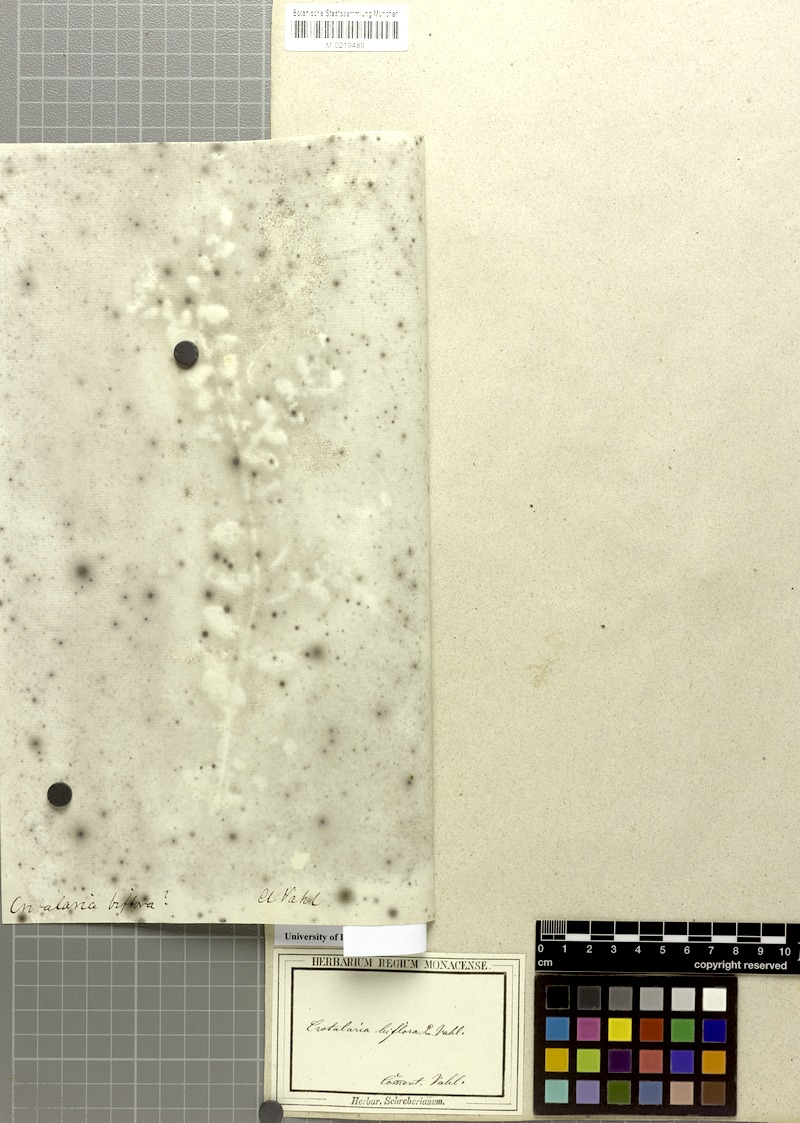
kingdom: Plantae
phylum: Tracheophyta
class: Magnoliopsida
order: Fabales
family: Fabaceae
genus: Crotalaria
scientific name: Crotalaria angulata
